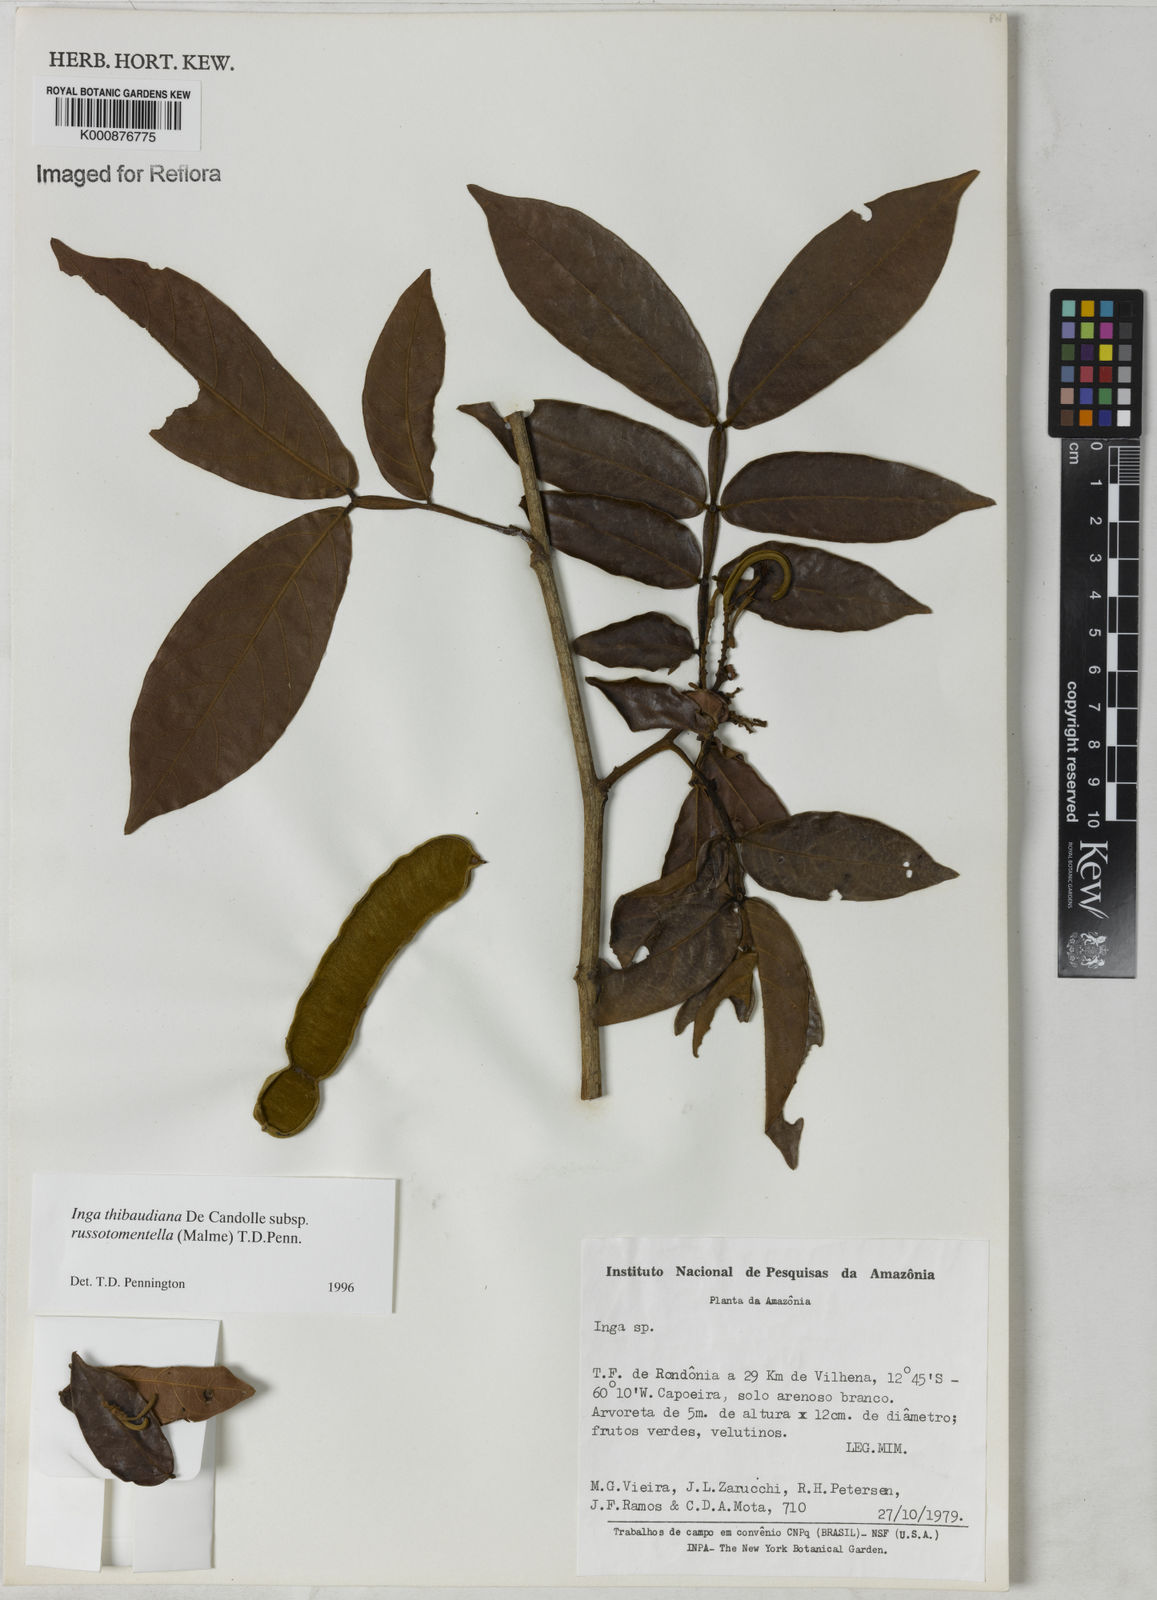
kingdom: Plantae
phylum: Tracheophyta
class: Magnoliopsida
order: Fabales
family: Fabaceae
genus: Inga
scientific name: Inga thibaudiana
